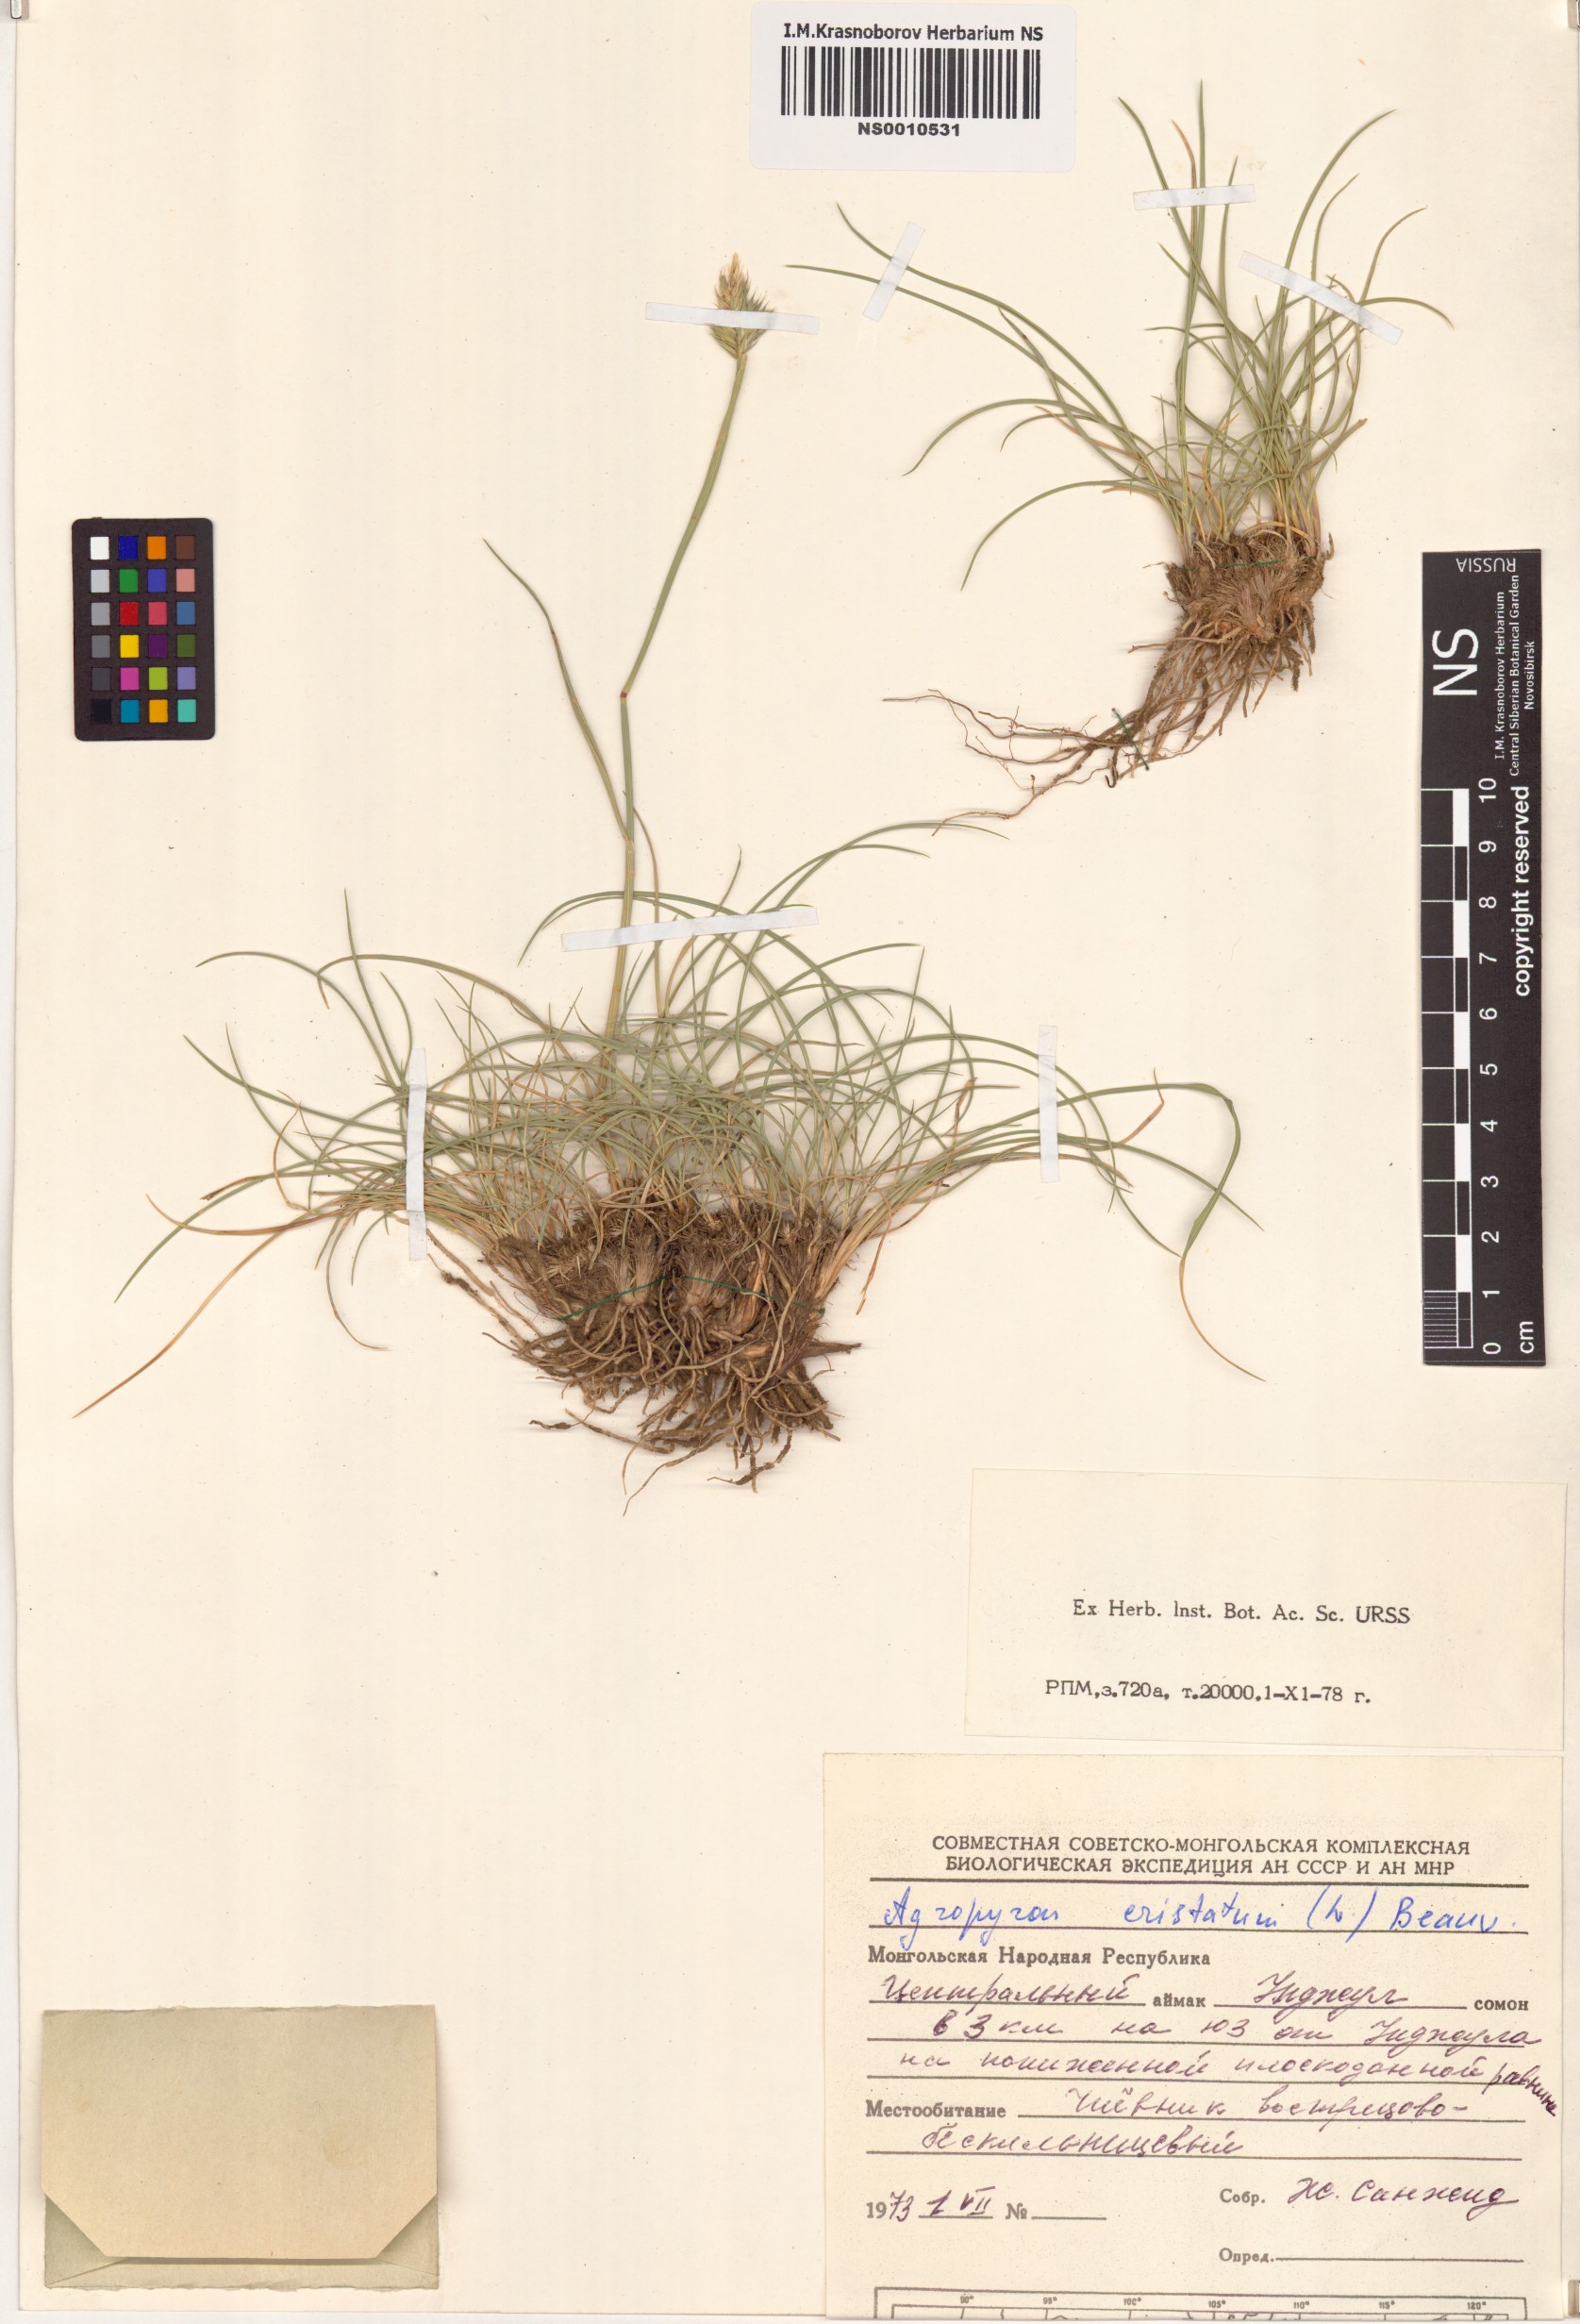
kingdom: Plantae
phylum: Tracheophyta
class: Liliopsida
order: Poales
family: Poaceae
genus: Agropyron
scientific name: Agropyron cristatum
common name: Crested wheatgrass
